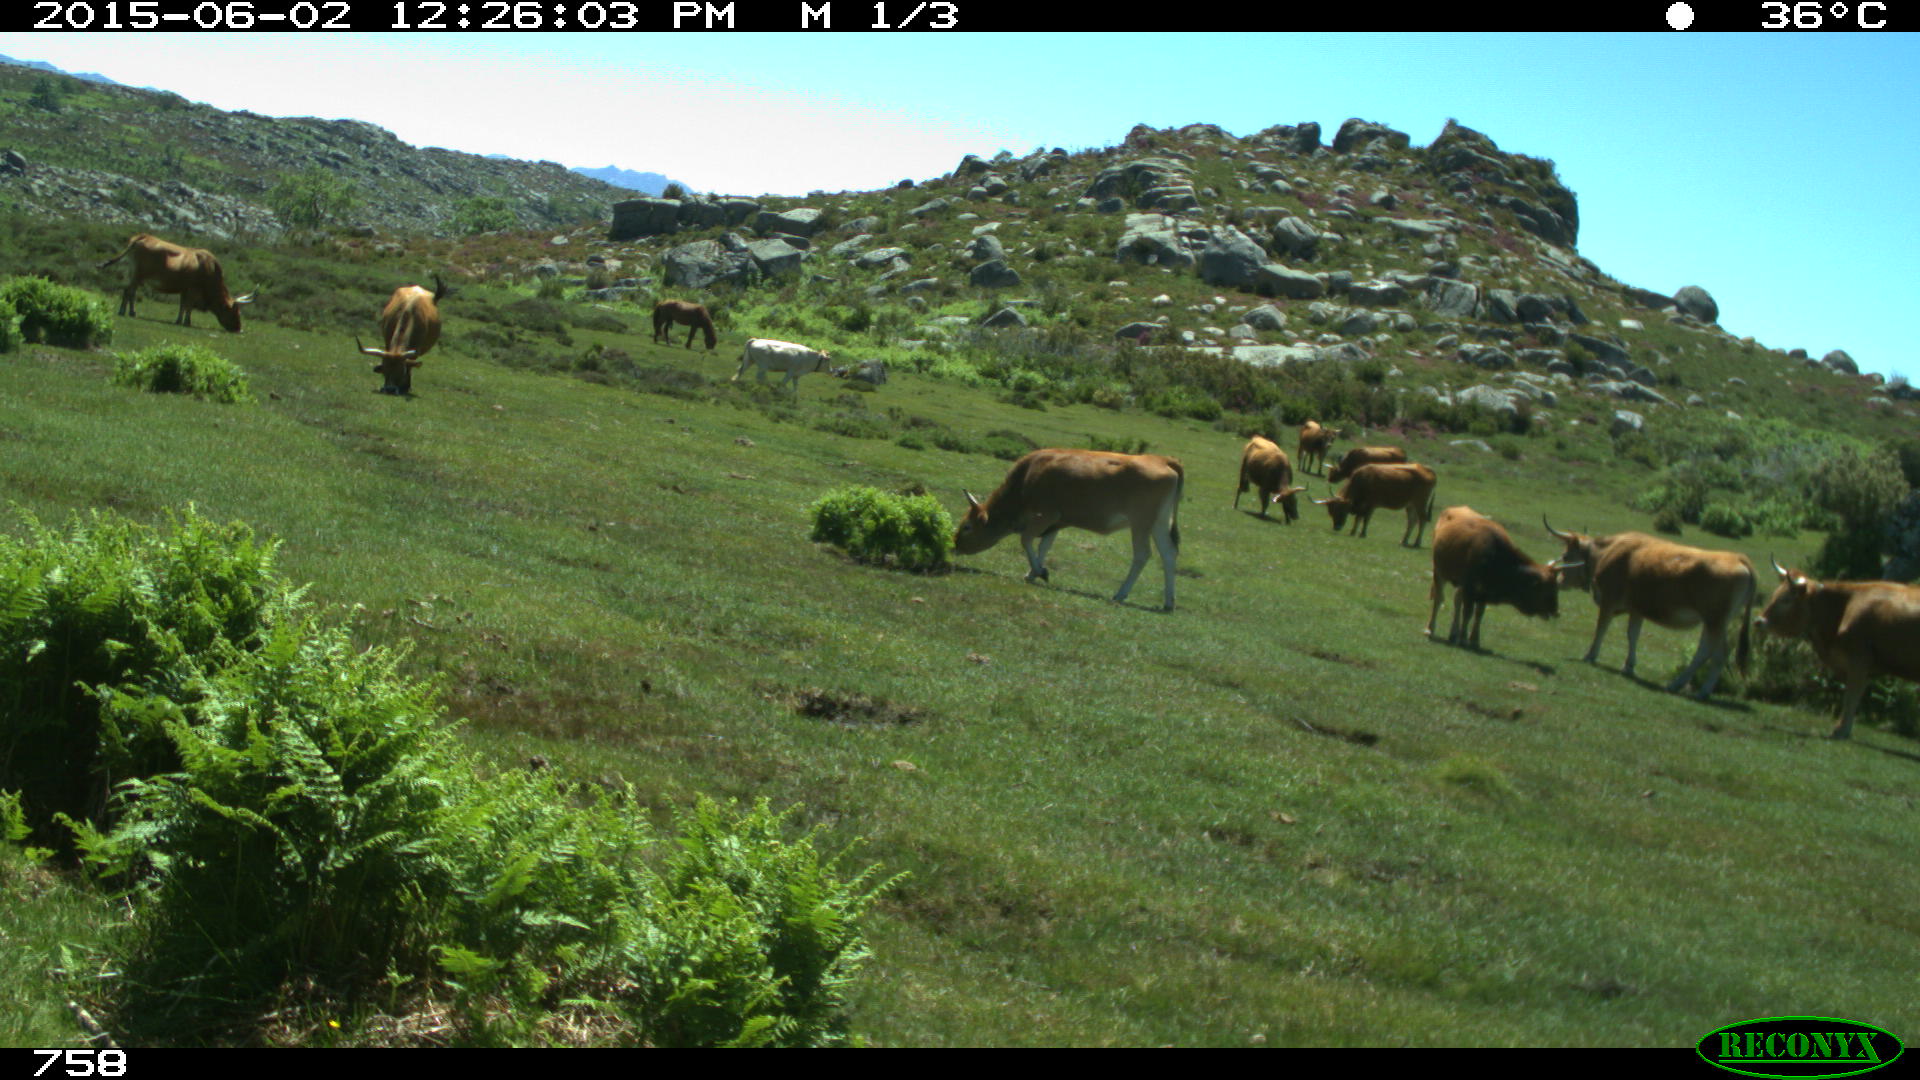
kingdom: Animalia
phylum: Chordata
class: Mammalia
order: Artiodactyla
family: Bovidae
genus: Bos
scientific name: Bos taurus
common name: Domesticated cattle
